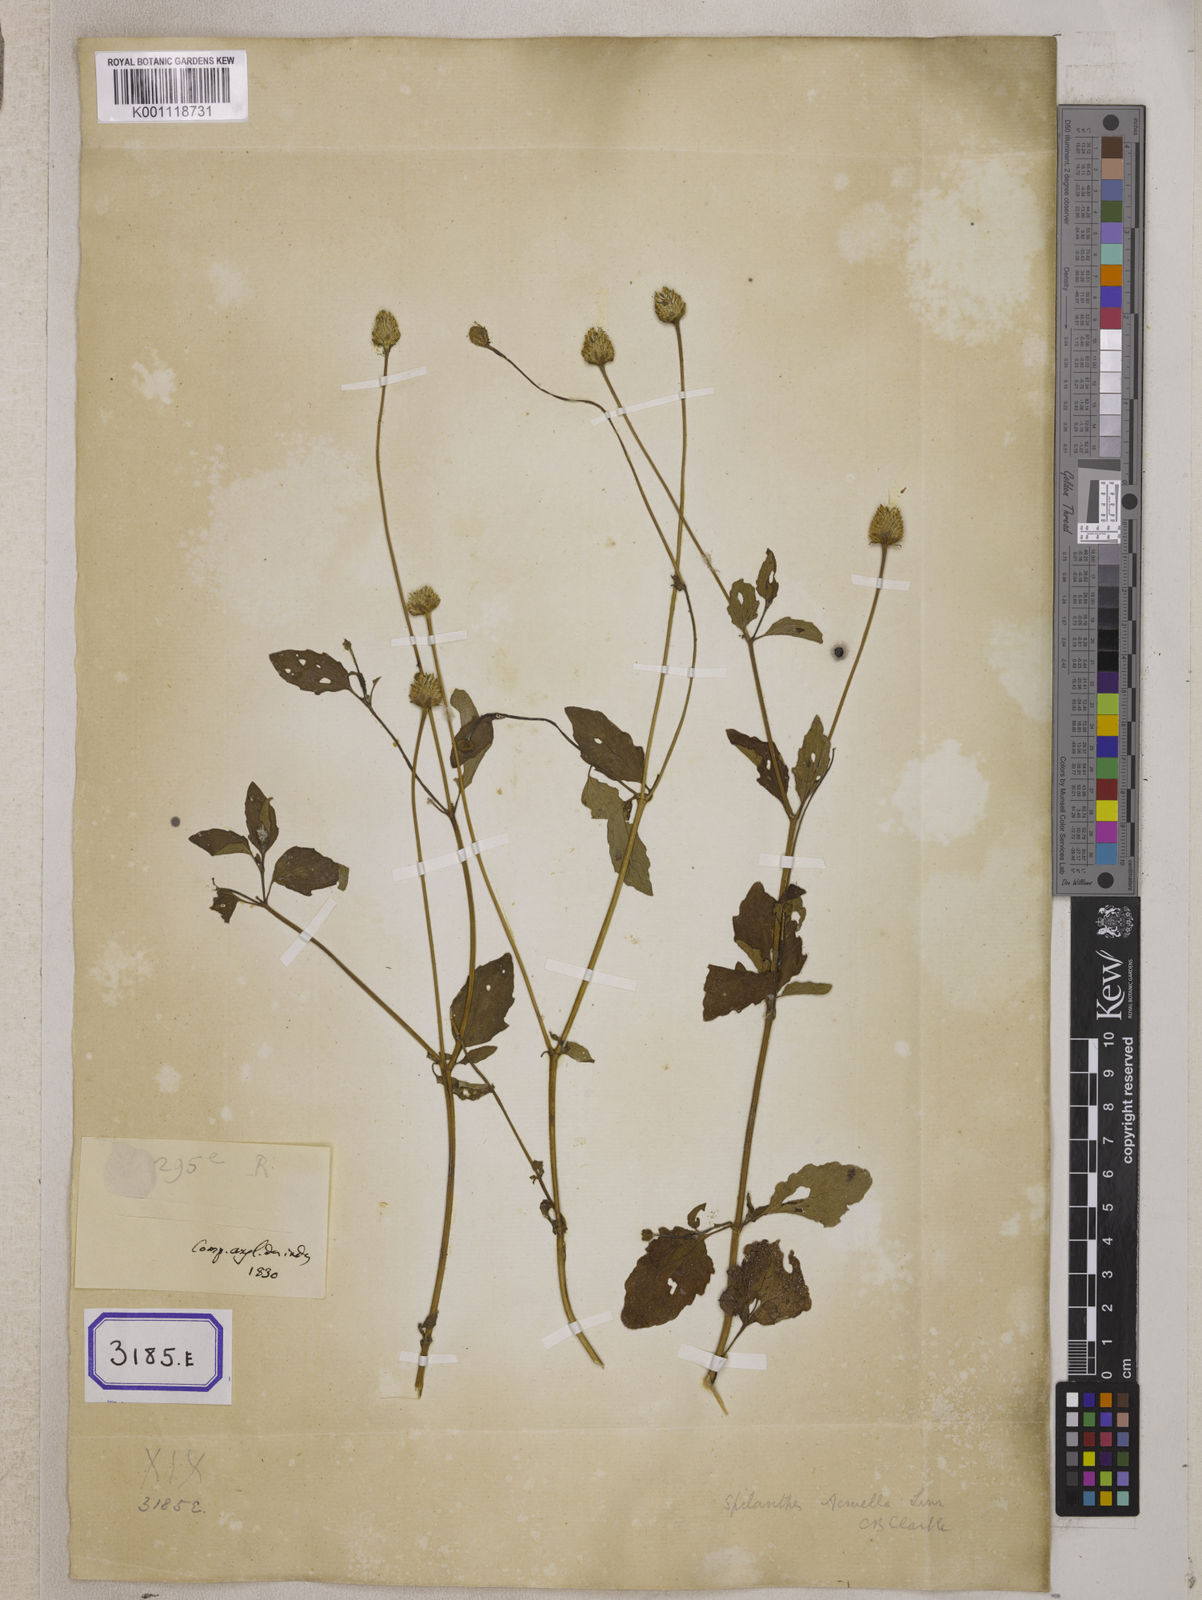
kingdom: Plantae
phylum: Tracheophyta
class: Magnoliopsida
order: Asterales
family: Asteraceae
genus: Blainvillea
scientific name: Blainvillea acmella
